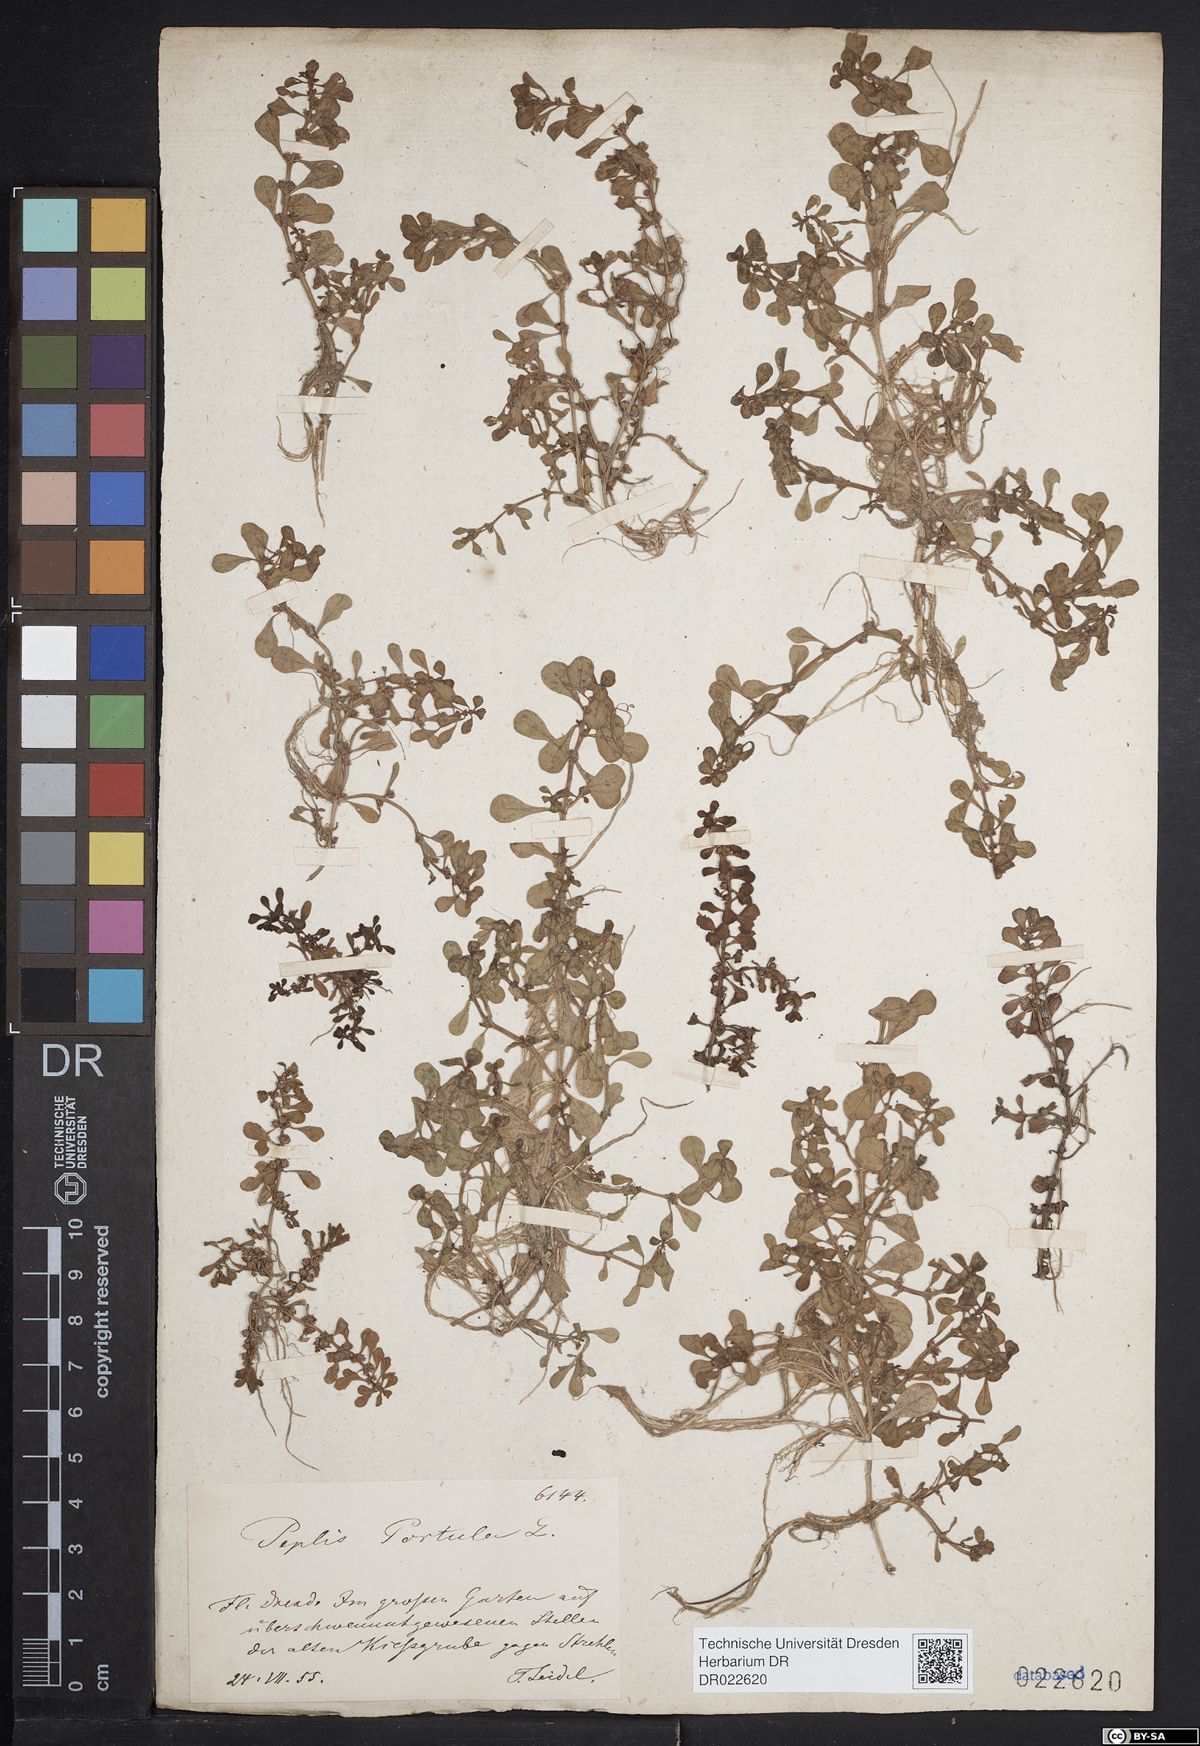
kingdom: Plantae
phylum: Tracheophyta
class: Magnoliopsida
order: Myrtales
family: Lythraceae
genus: Lythrum
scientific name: Lythrum portula
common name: Water purslane
